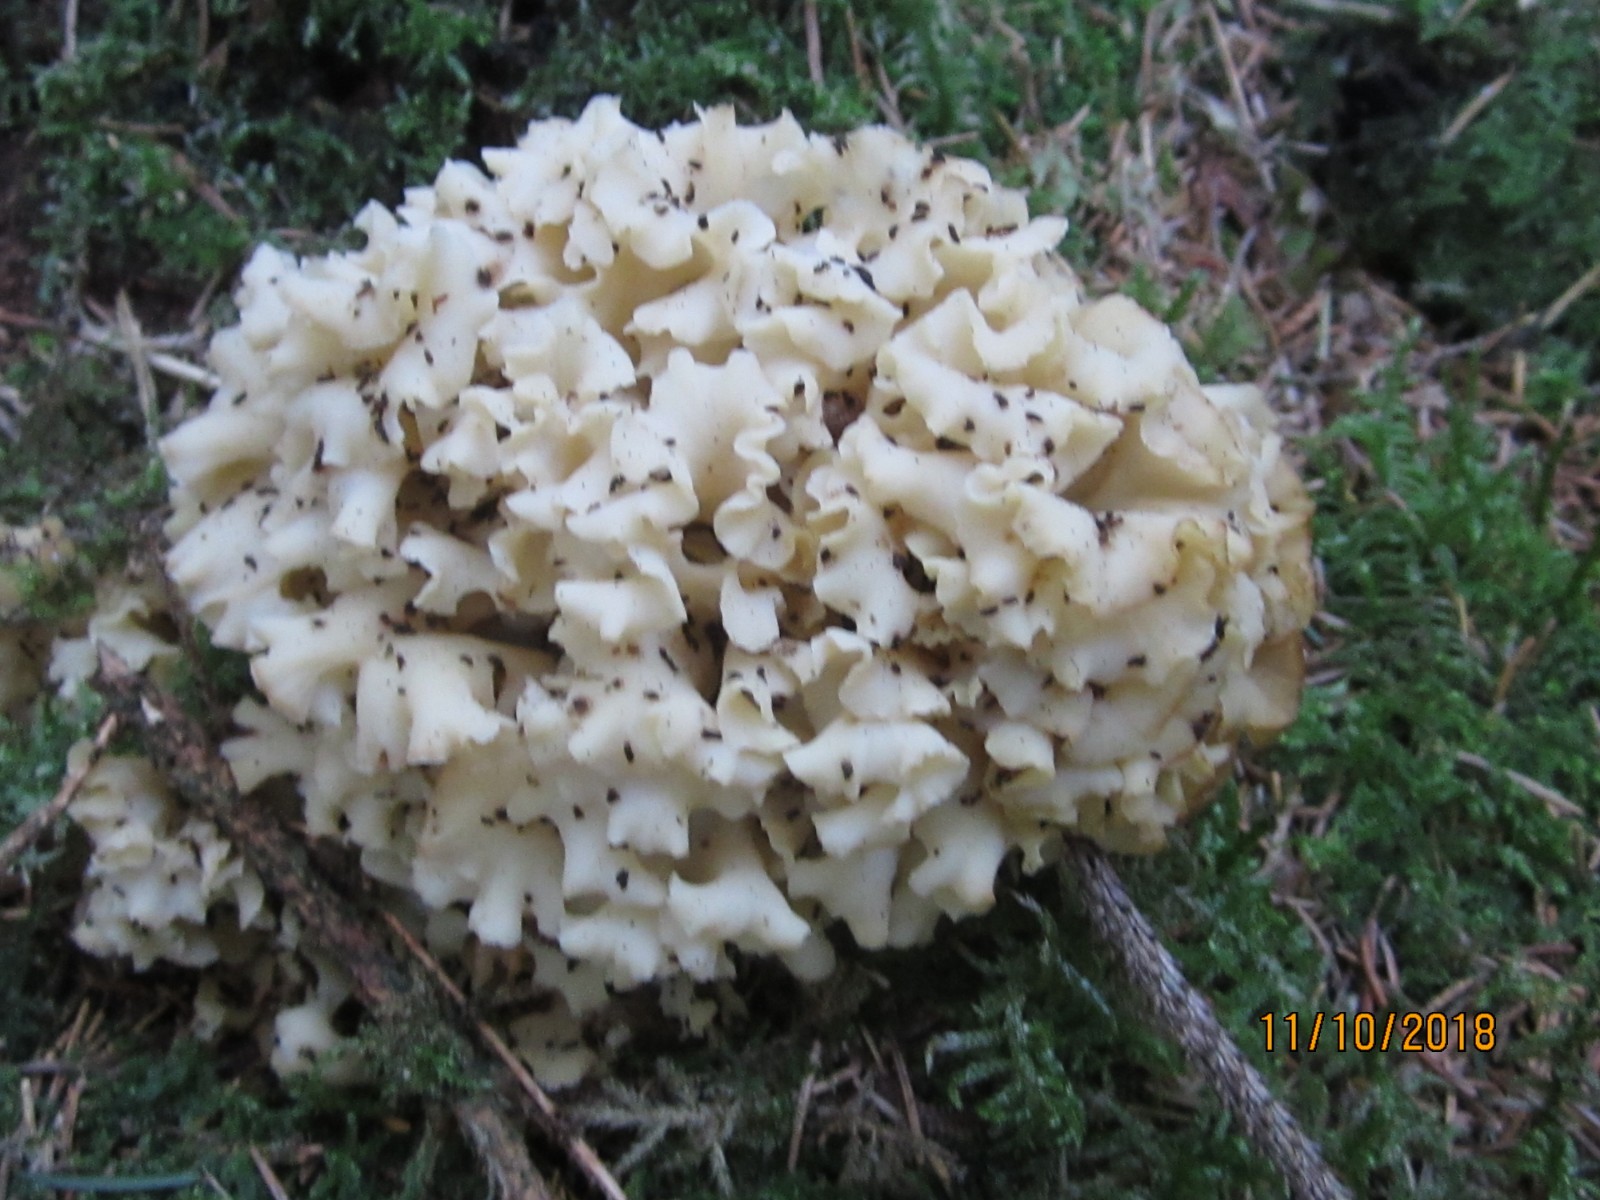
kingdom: Fungi
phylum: Basidiomycota
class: Agaricomycetes
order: Polyporales
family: Sparassidaceae
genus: Sparassis
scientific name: Sparassis crispa
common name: kruset blomkålssvamp
